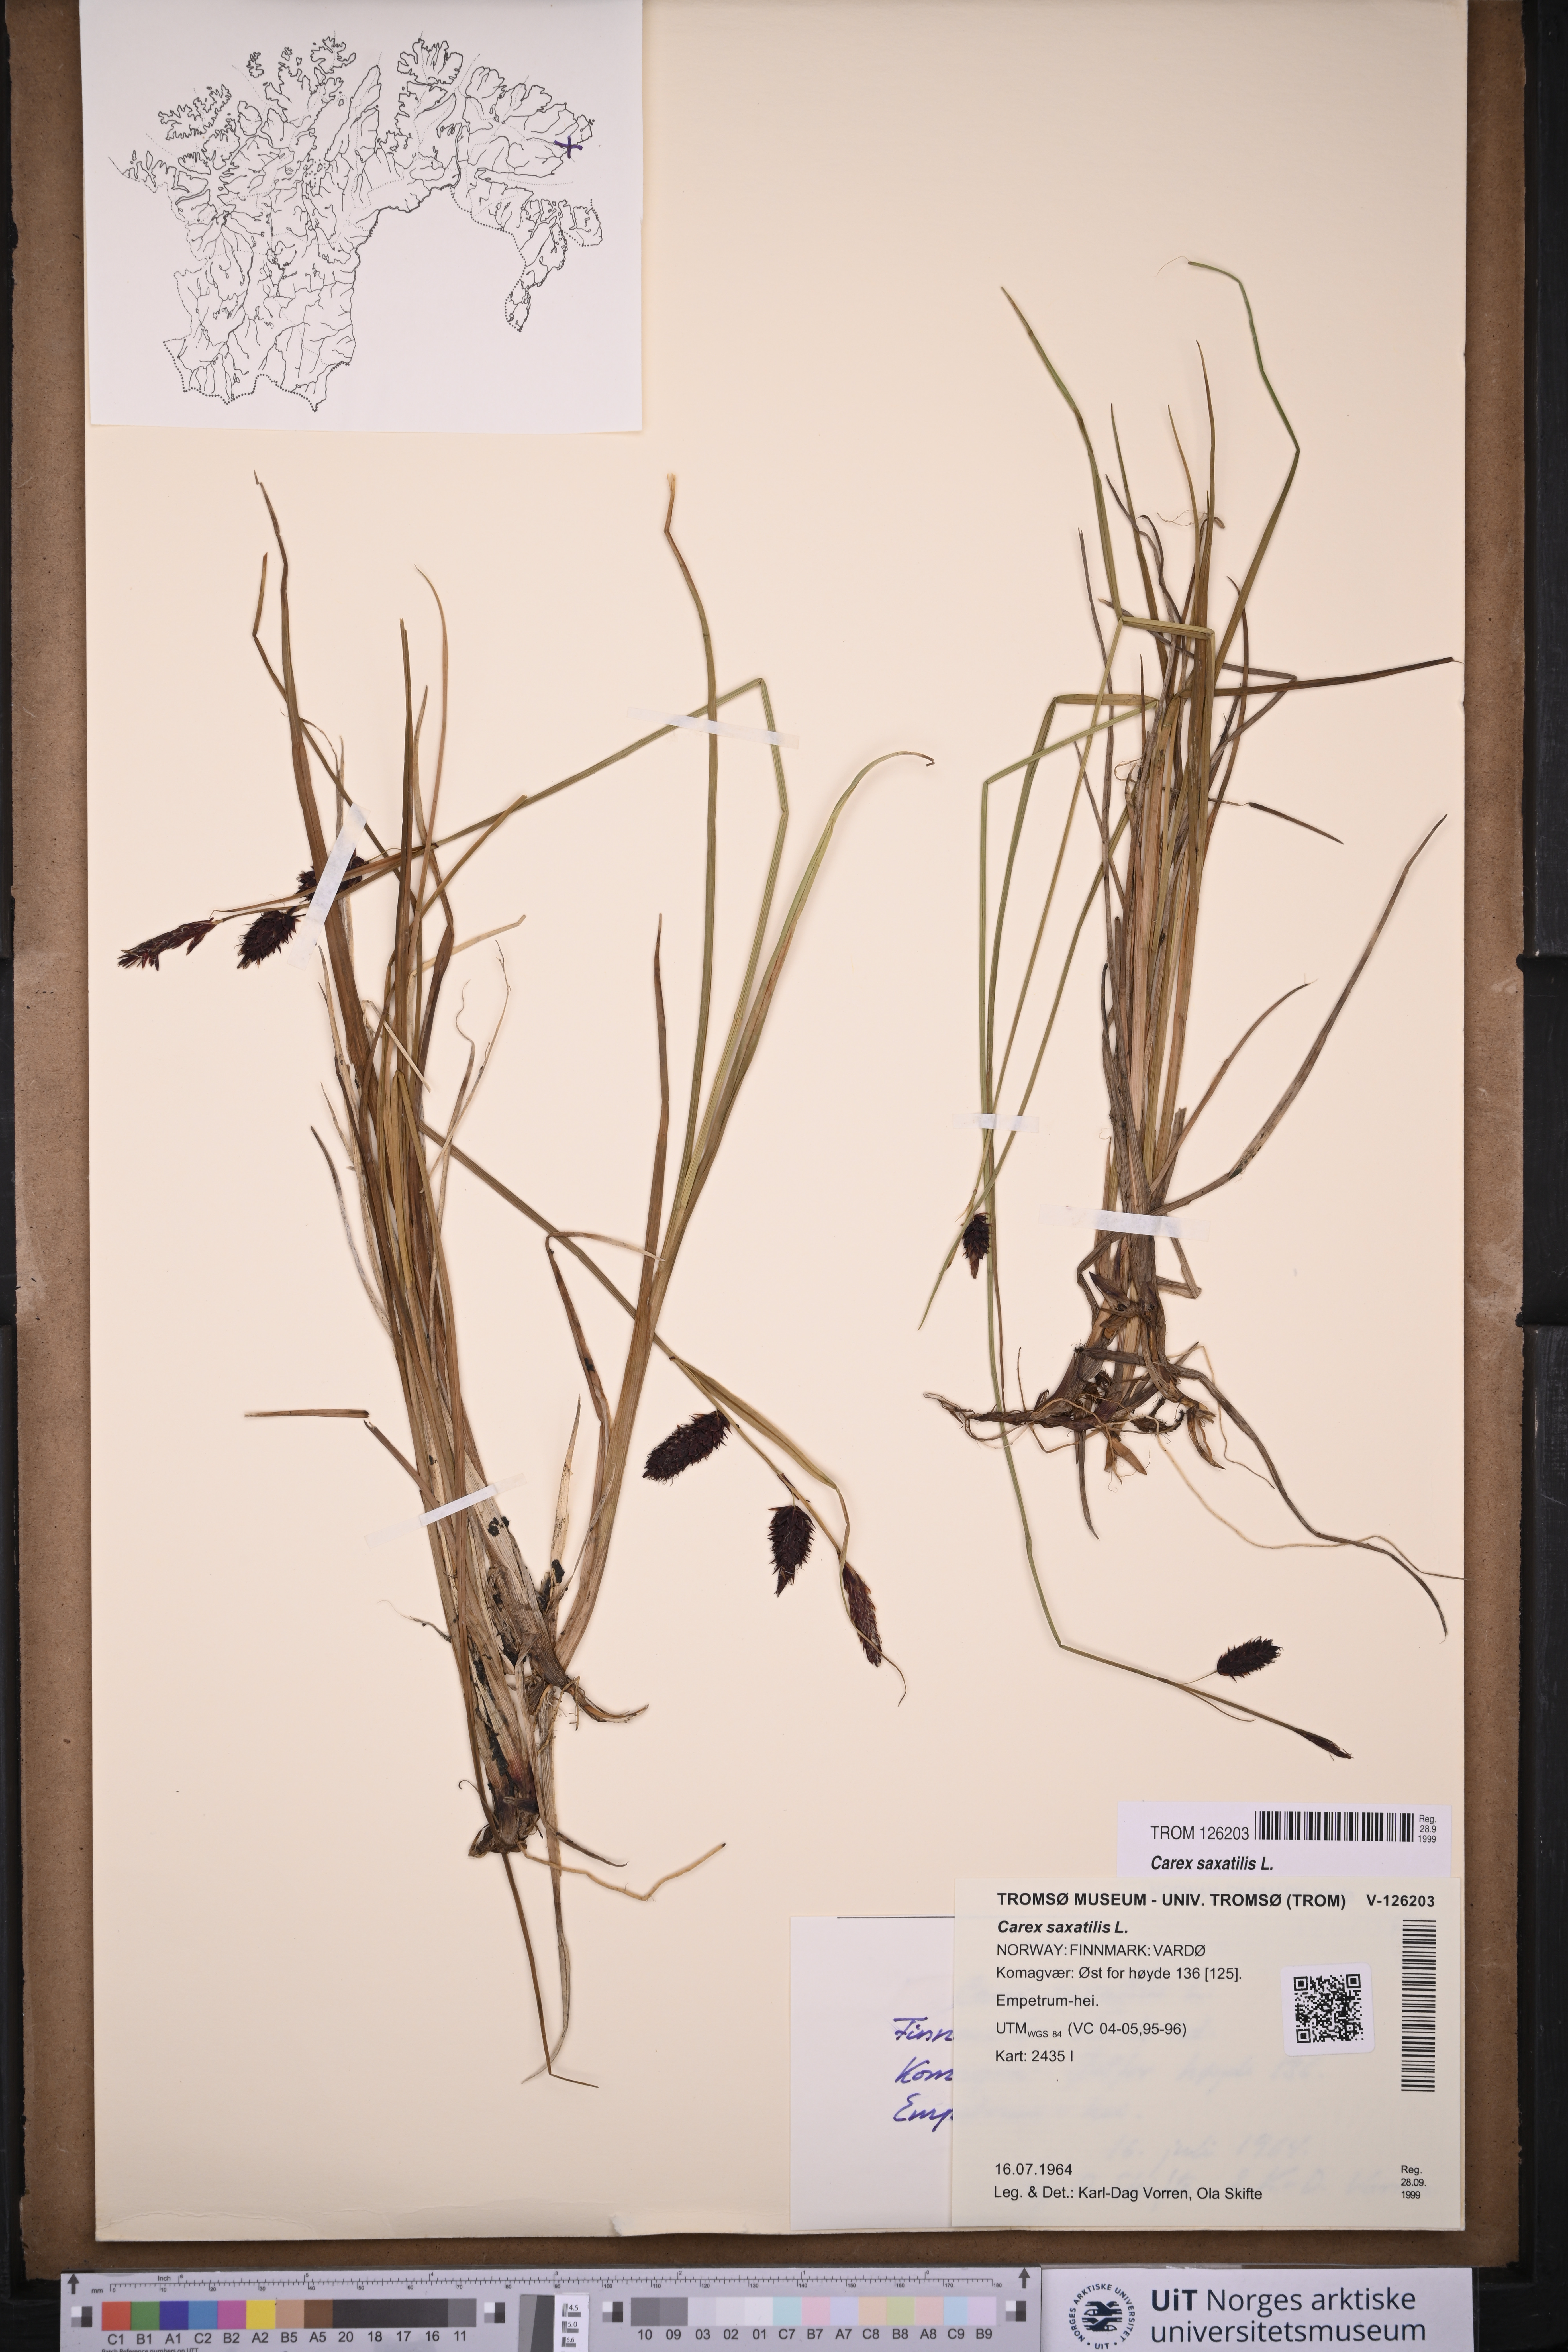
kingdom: Plantae
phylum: Tracheophyta
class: Liliopsida
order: Poales
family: Cyperaceae
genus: Carex
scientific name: Carex saxatilis
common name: Russet sedge
